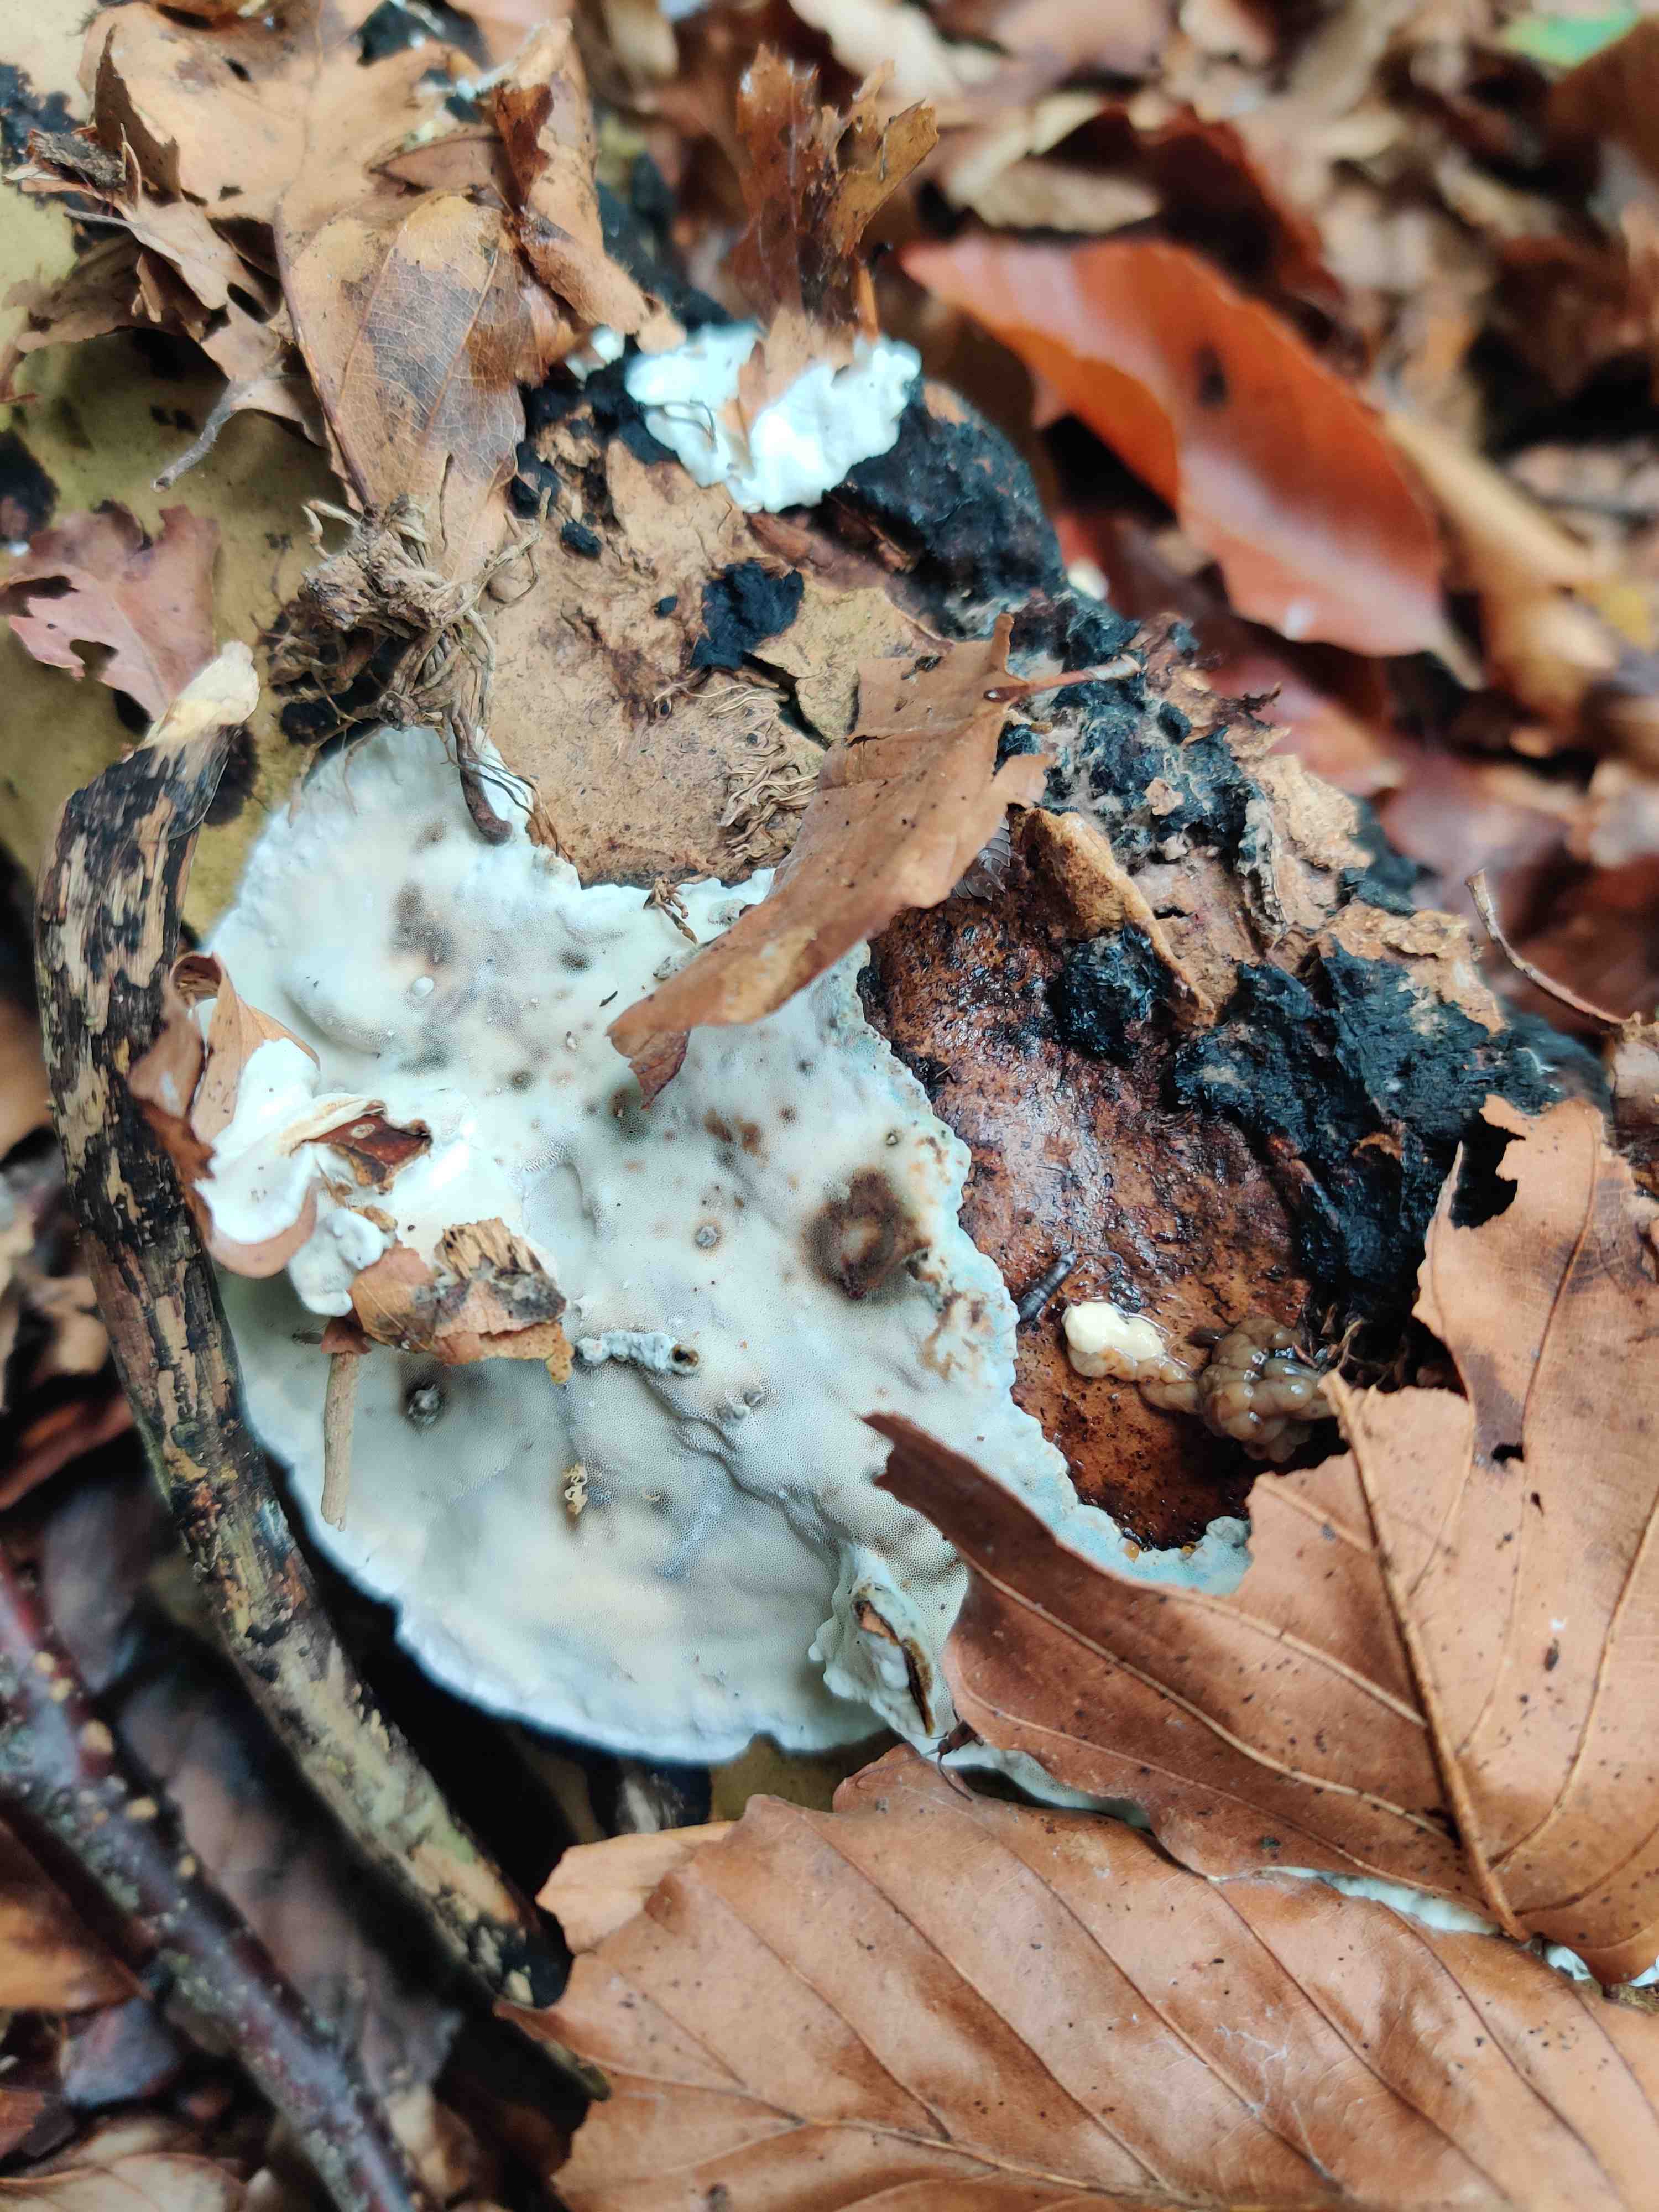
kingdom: Fungi
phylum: Basidiomycota
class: Agaricomycetes
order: Polyporales
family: Incrustoporiaceae
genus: Skeletocutis
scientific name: Skeletocutis nemoralis
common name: stor krystalporesvamp
